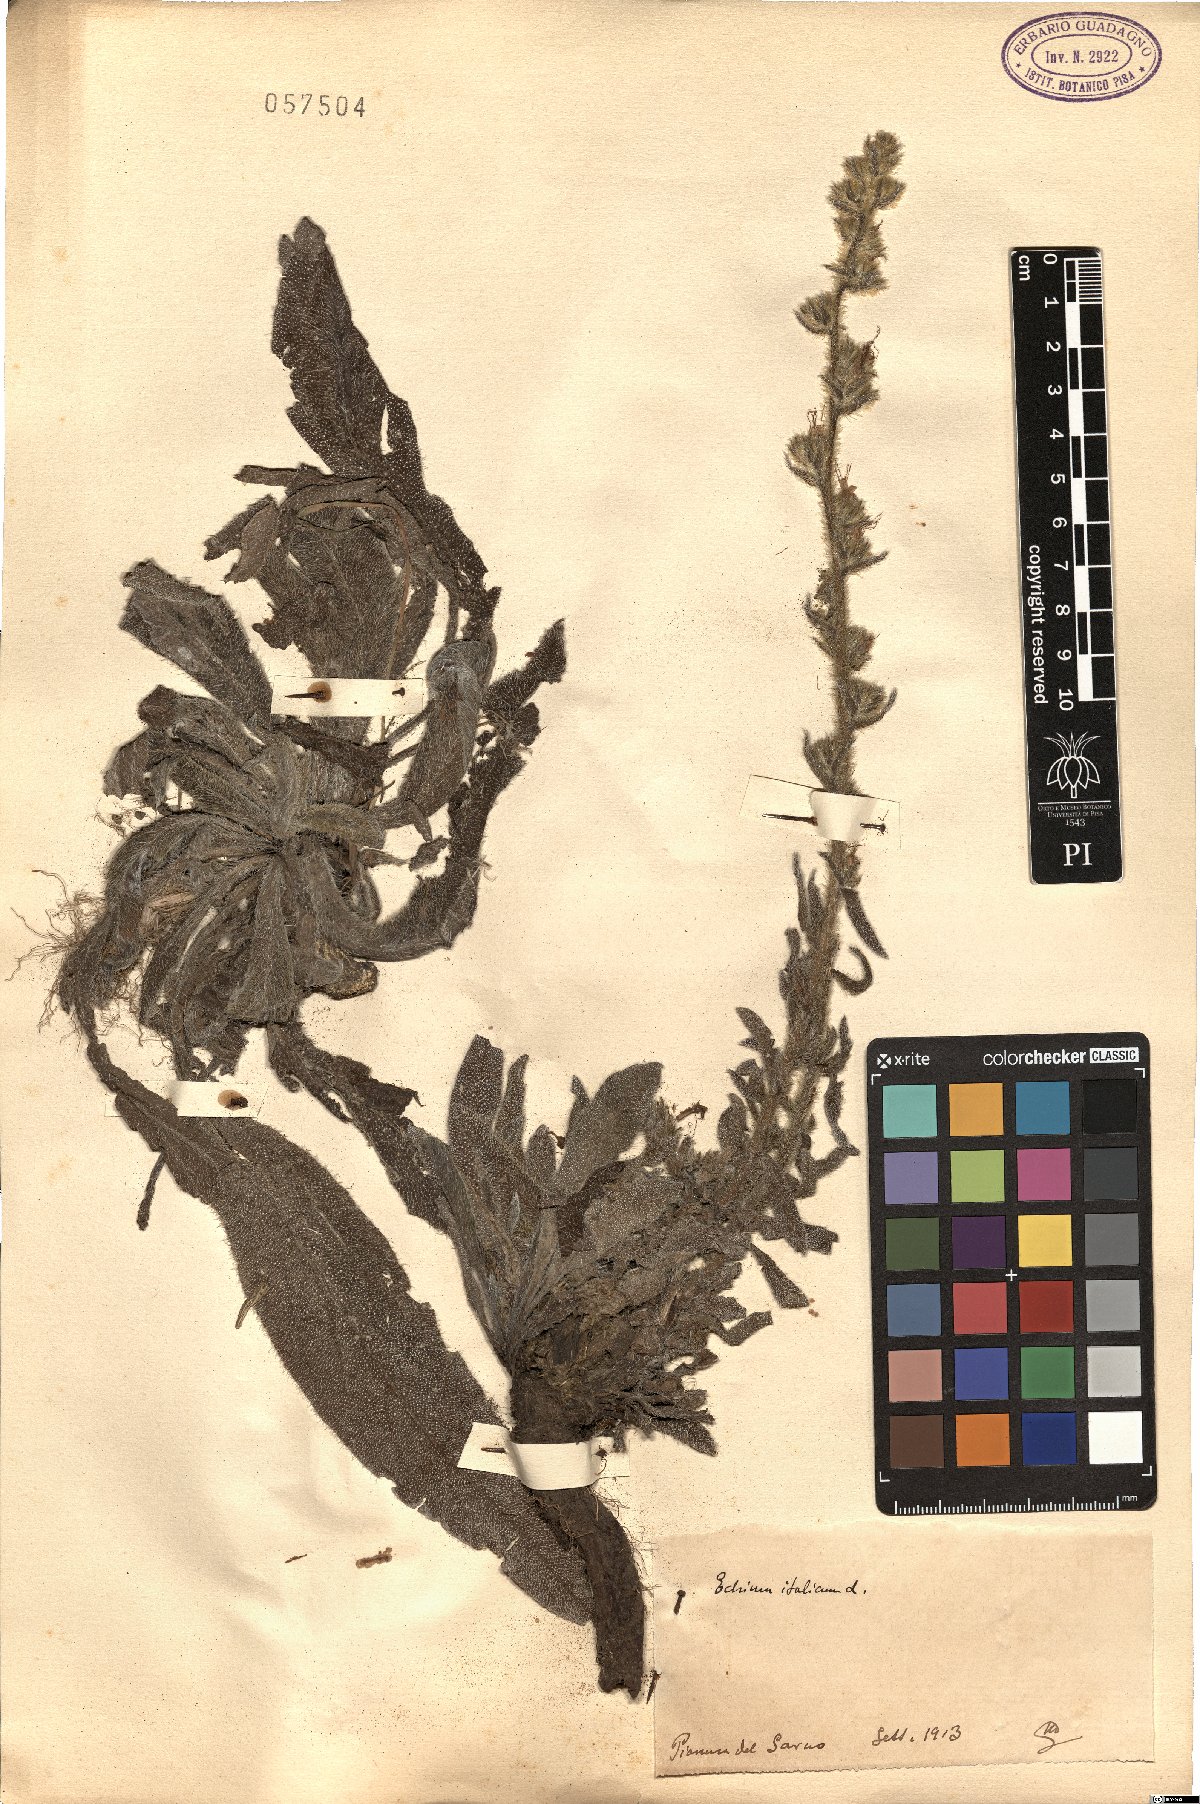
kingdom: Plantae
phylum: Tracheophyta
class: Magnoliopsida
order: Boraginales
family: Boraginaceae
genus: Echium
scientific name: Echium italicum
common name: Italian viper's bugloss
